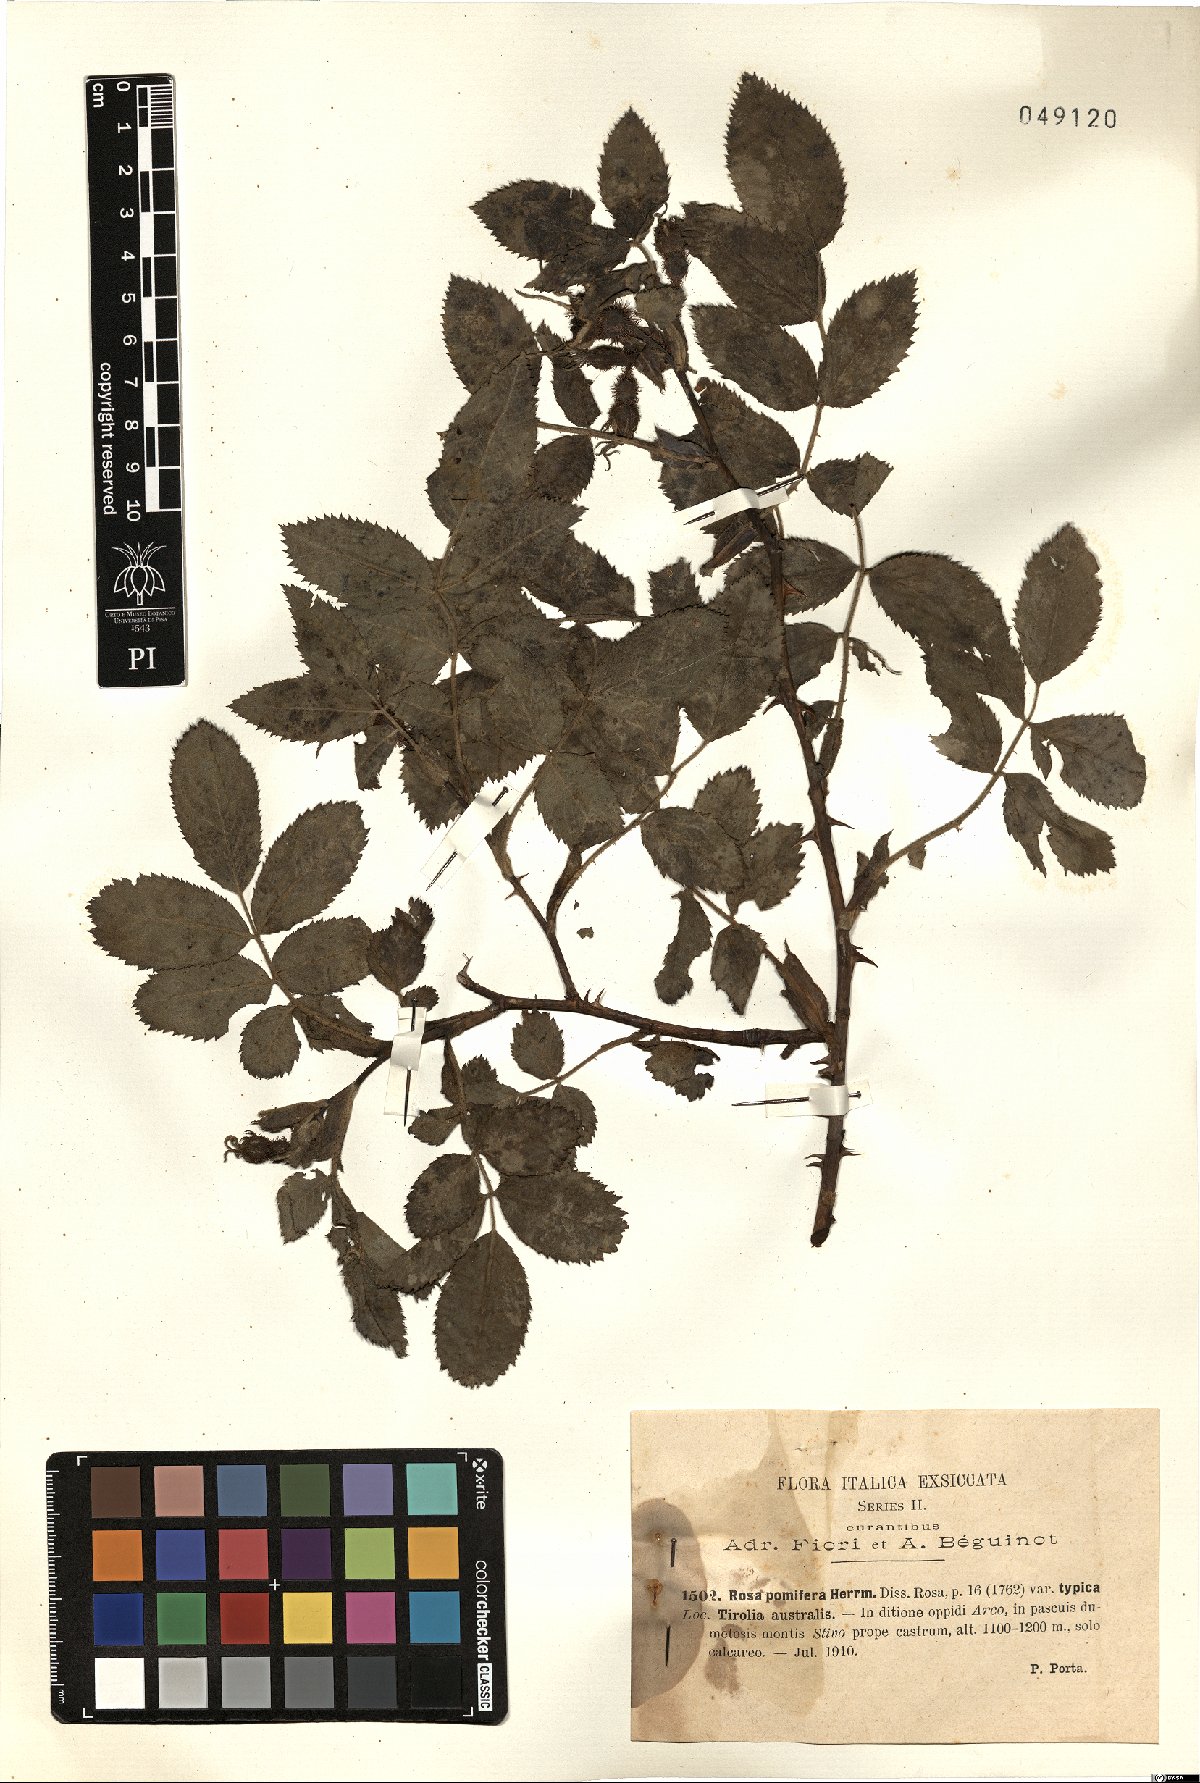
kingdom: Plantae
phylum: Tracheophyta
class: Magnoliopsida
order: Rosales
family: Rosaceae
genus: Rosa
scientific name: Rosa villosa
